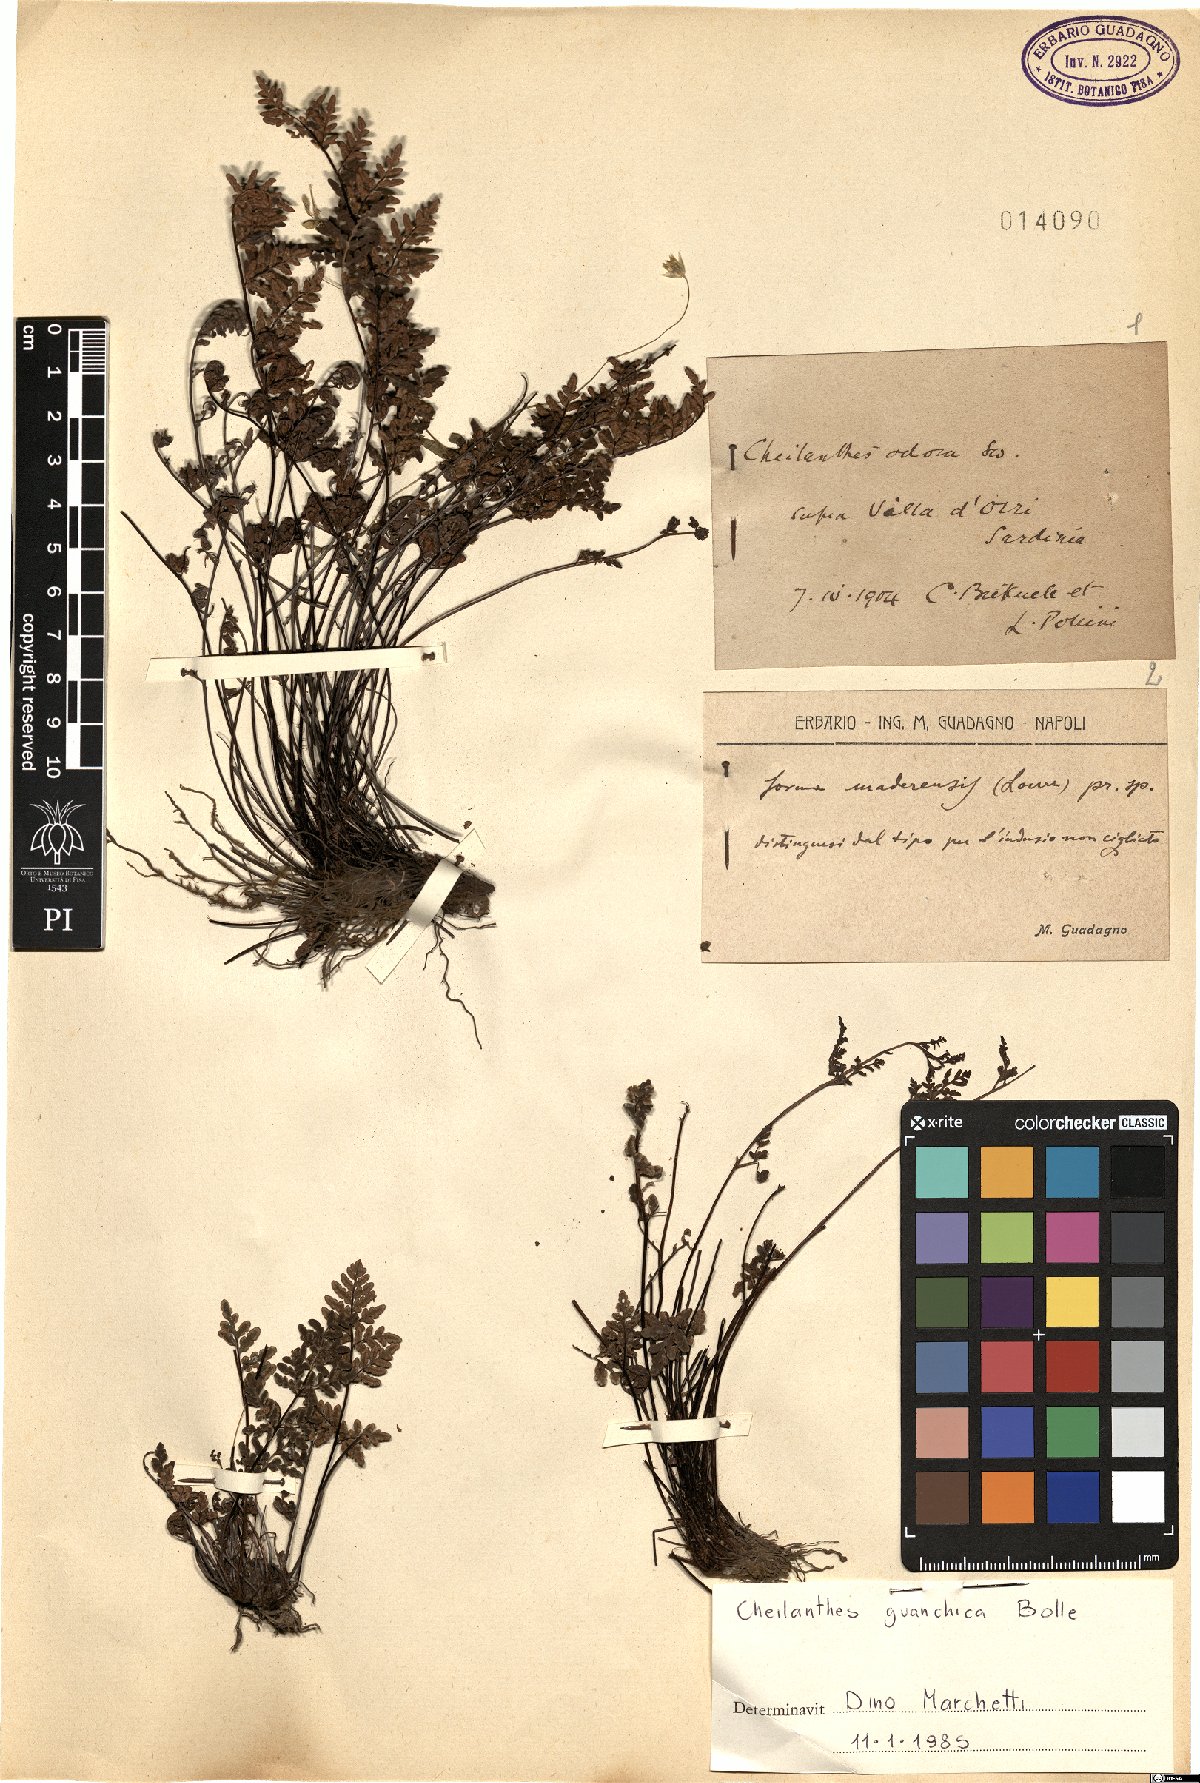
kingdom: Plantae
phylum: Tracheophyta
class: Polypodiopsida
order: Polypodiales
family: Pteridaceae
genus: Oeosporangium
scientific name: Oeosporangium guanchicum
